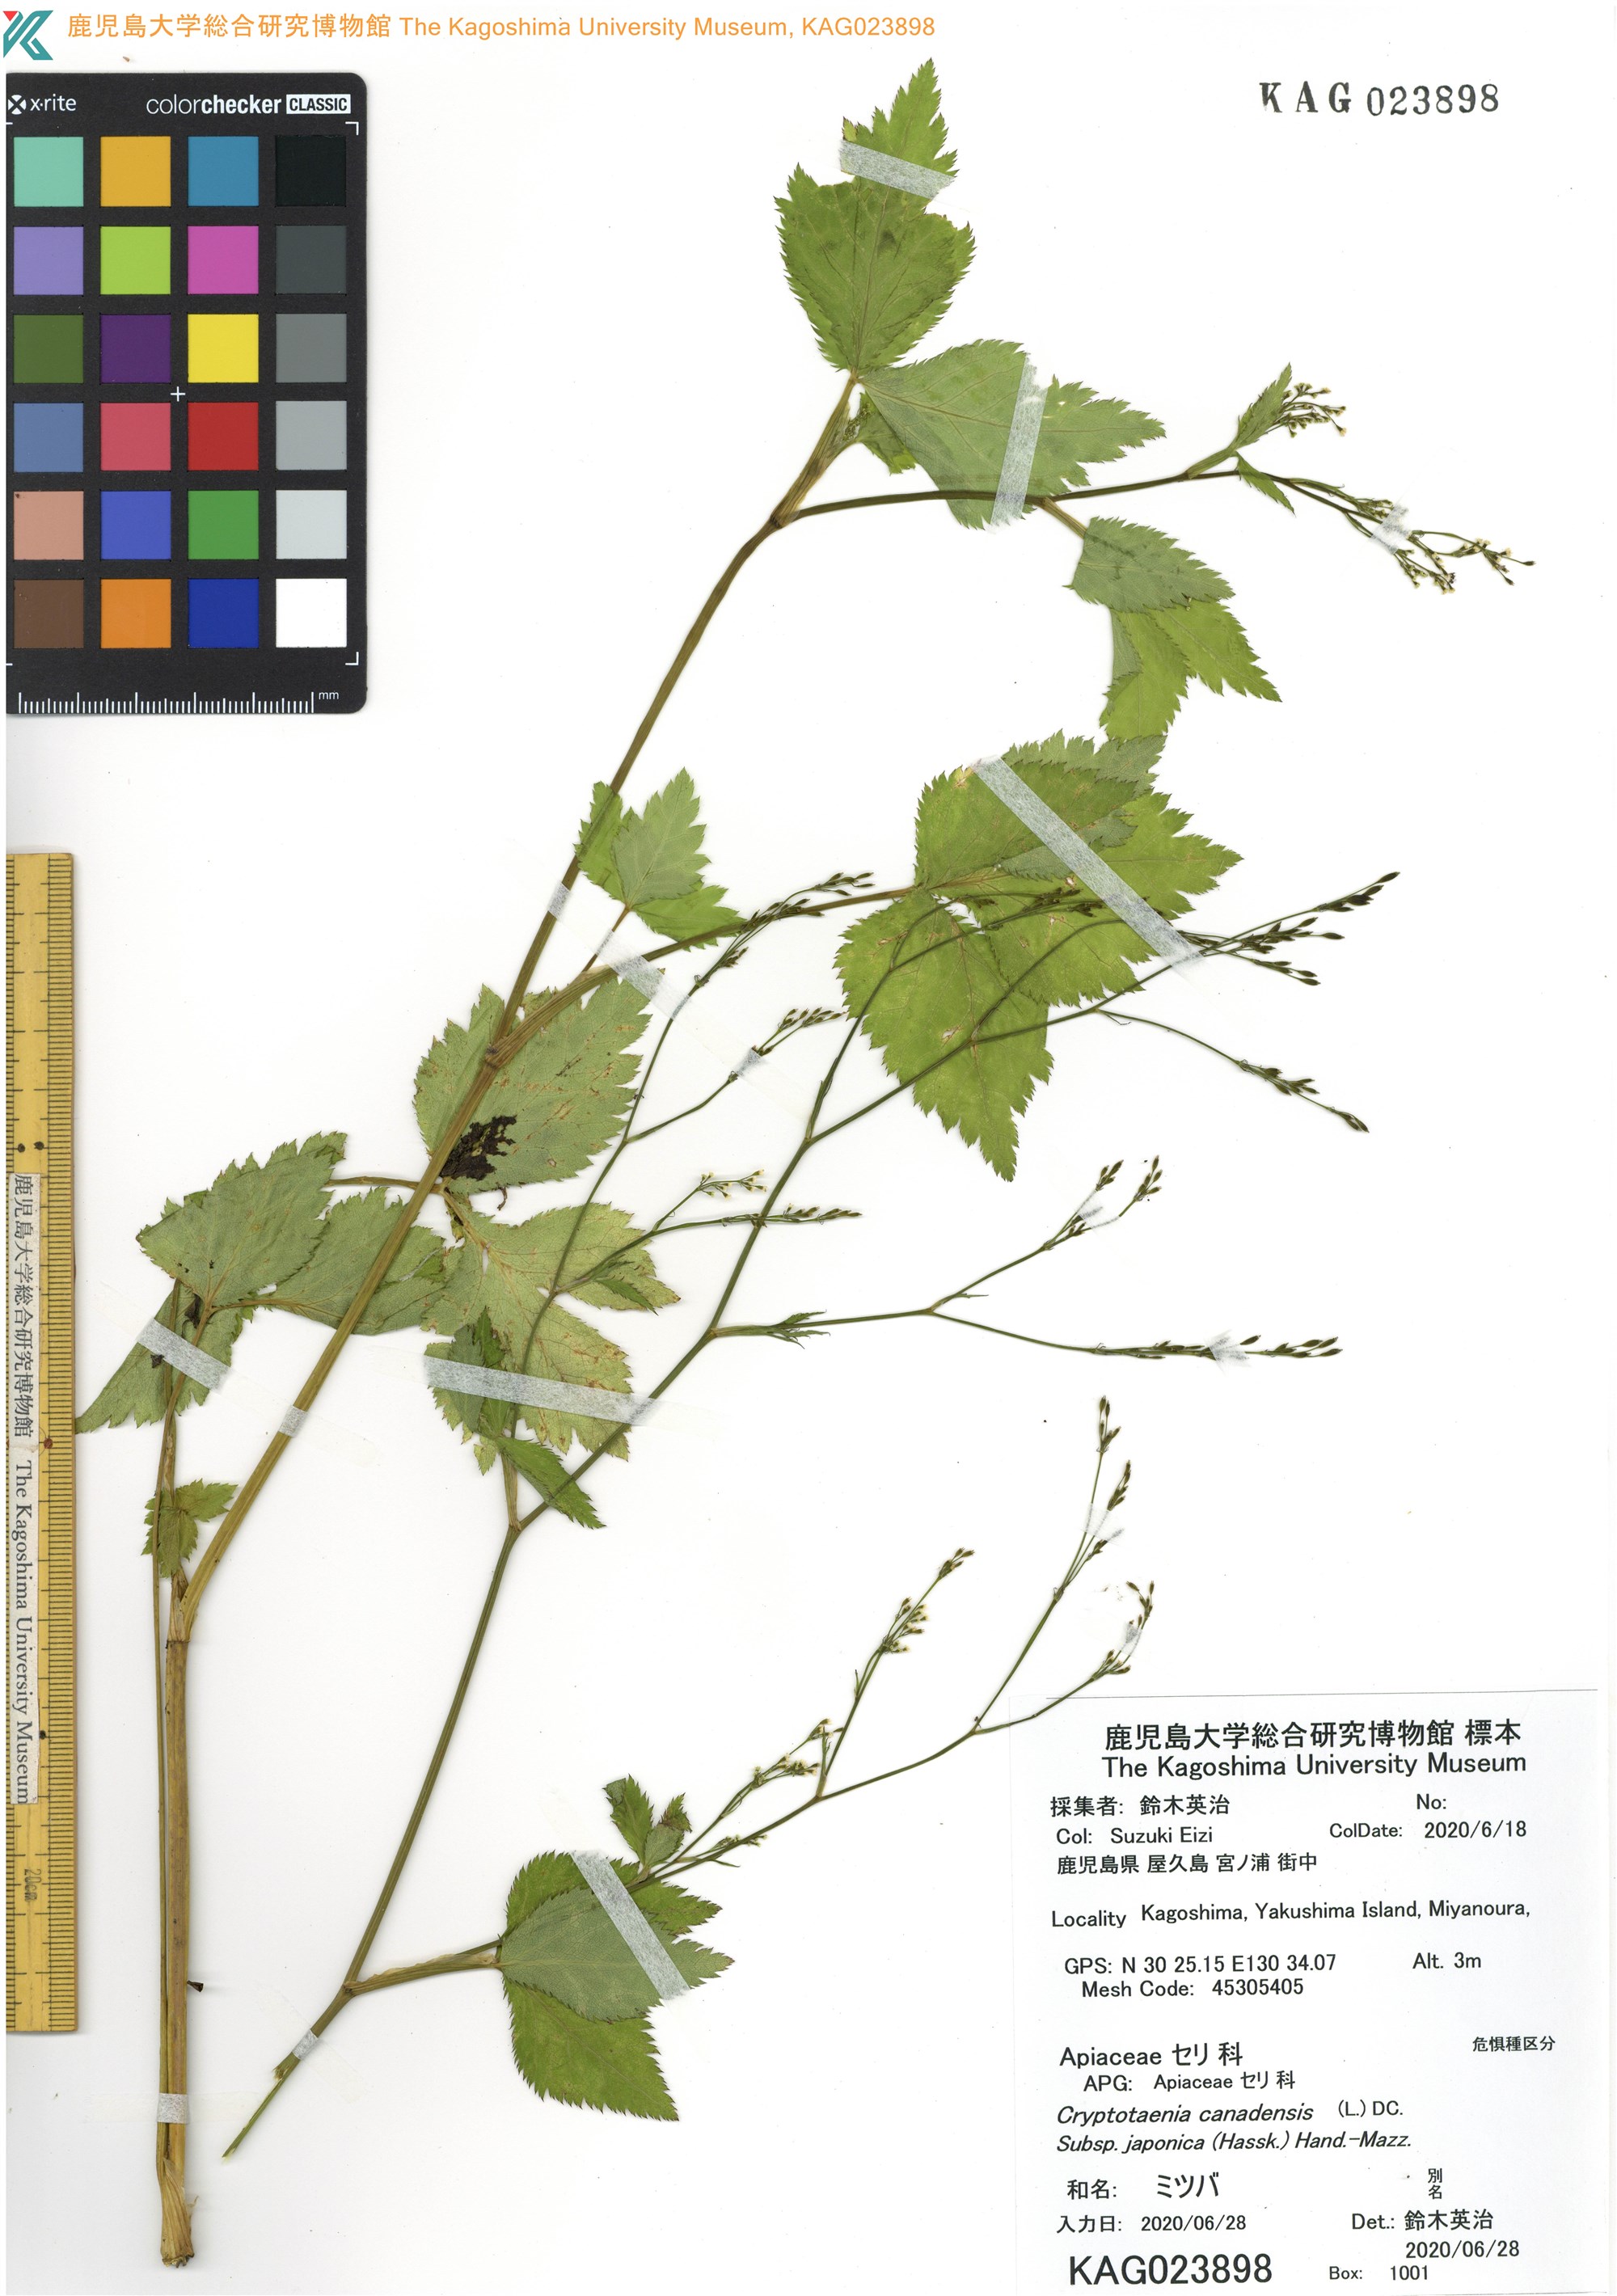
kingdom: Plantae
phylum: Tracheophyta
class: Magnoliopsida
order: Apiales
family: Apiaceae
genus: Cryptotaenia
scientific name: Cryptotaenia japonica
